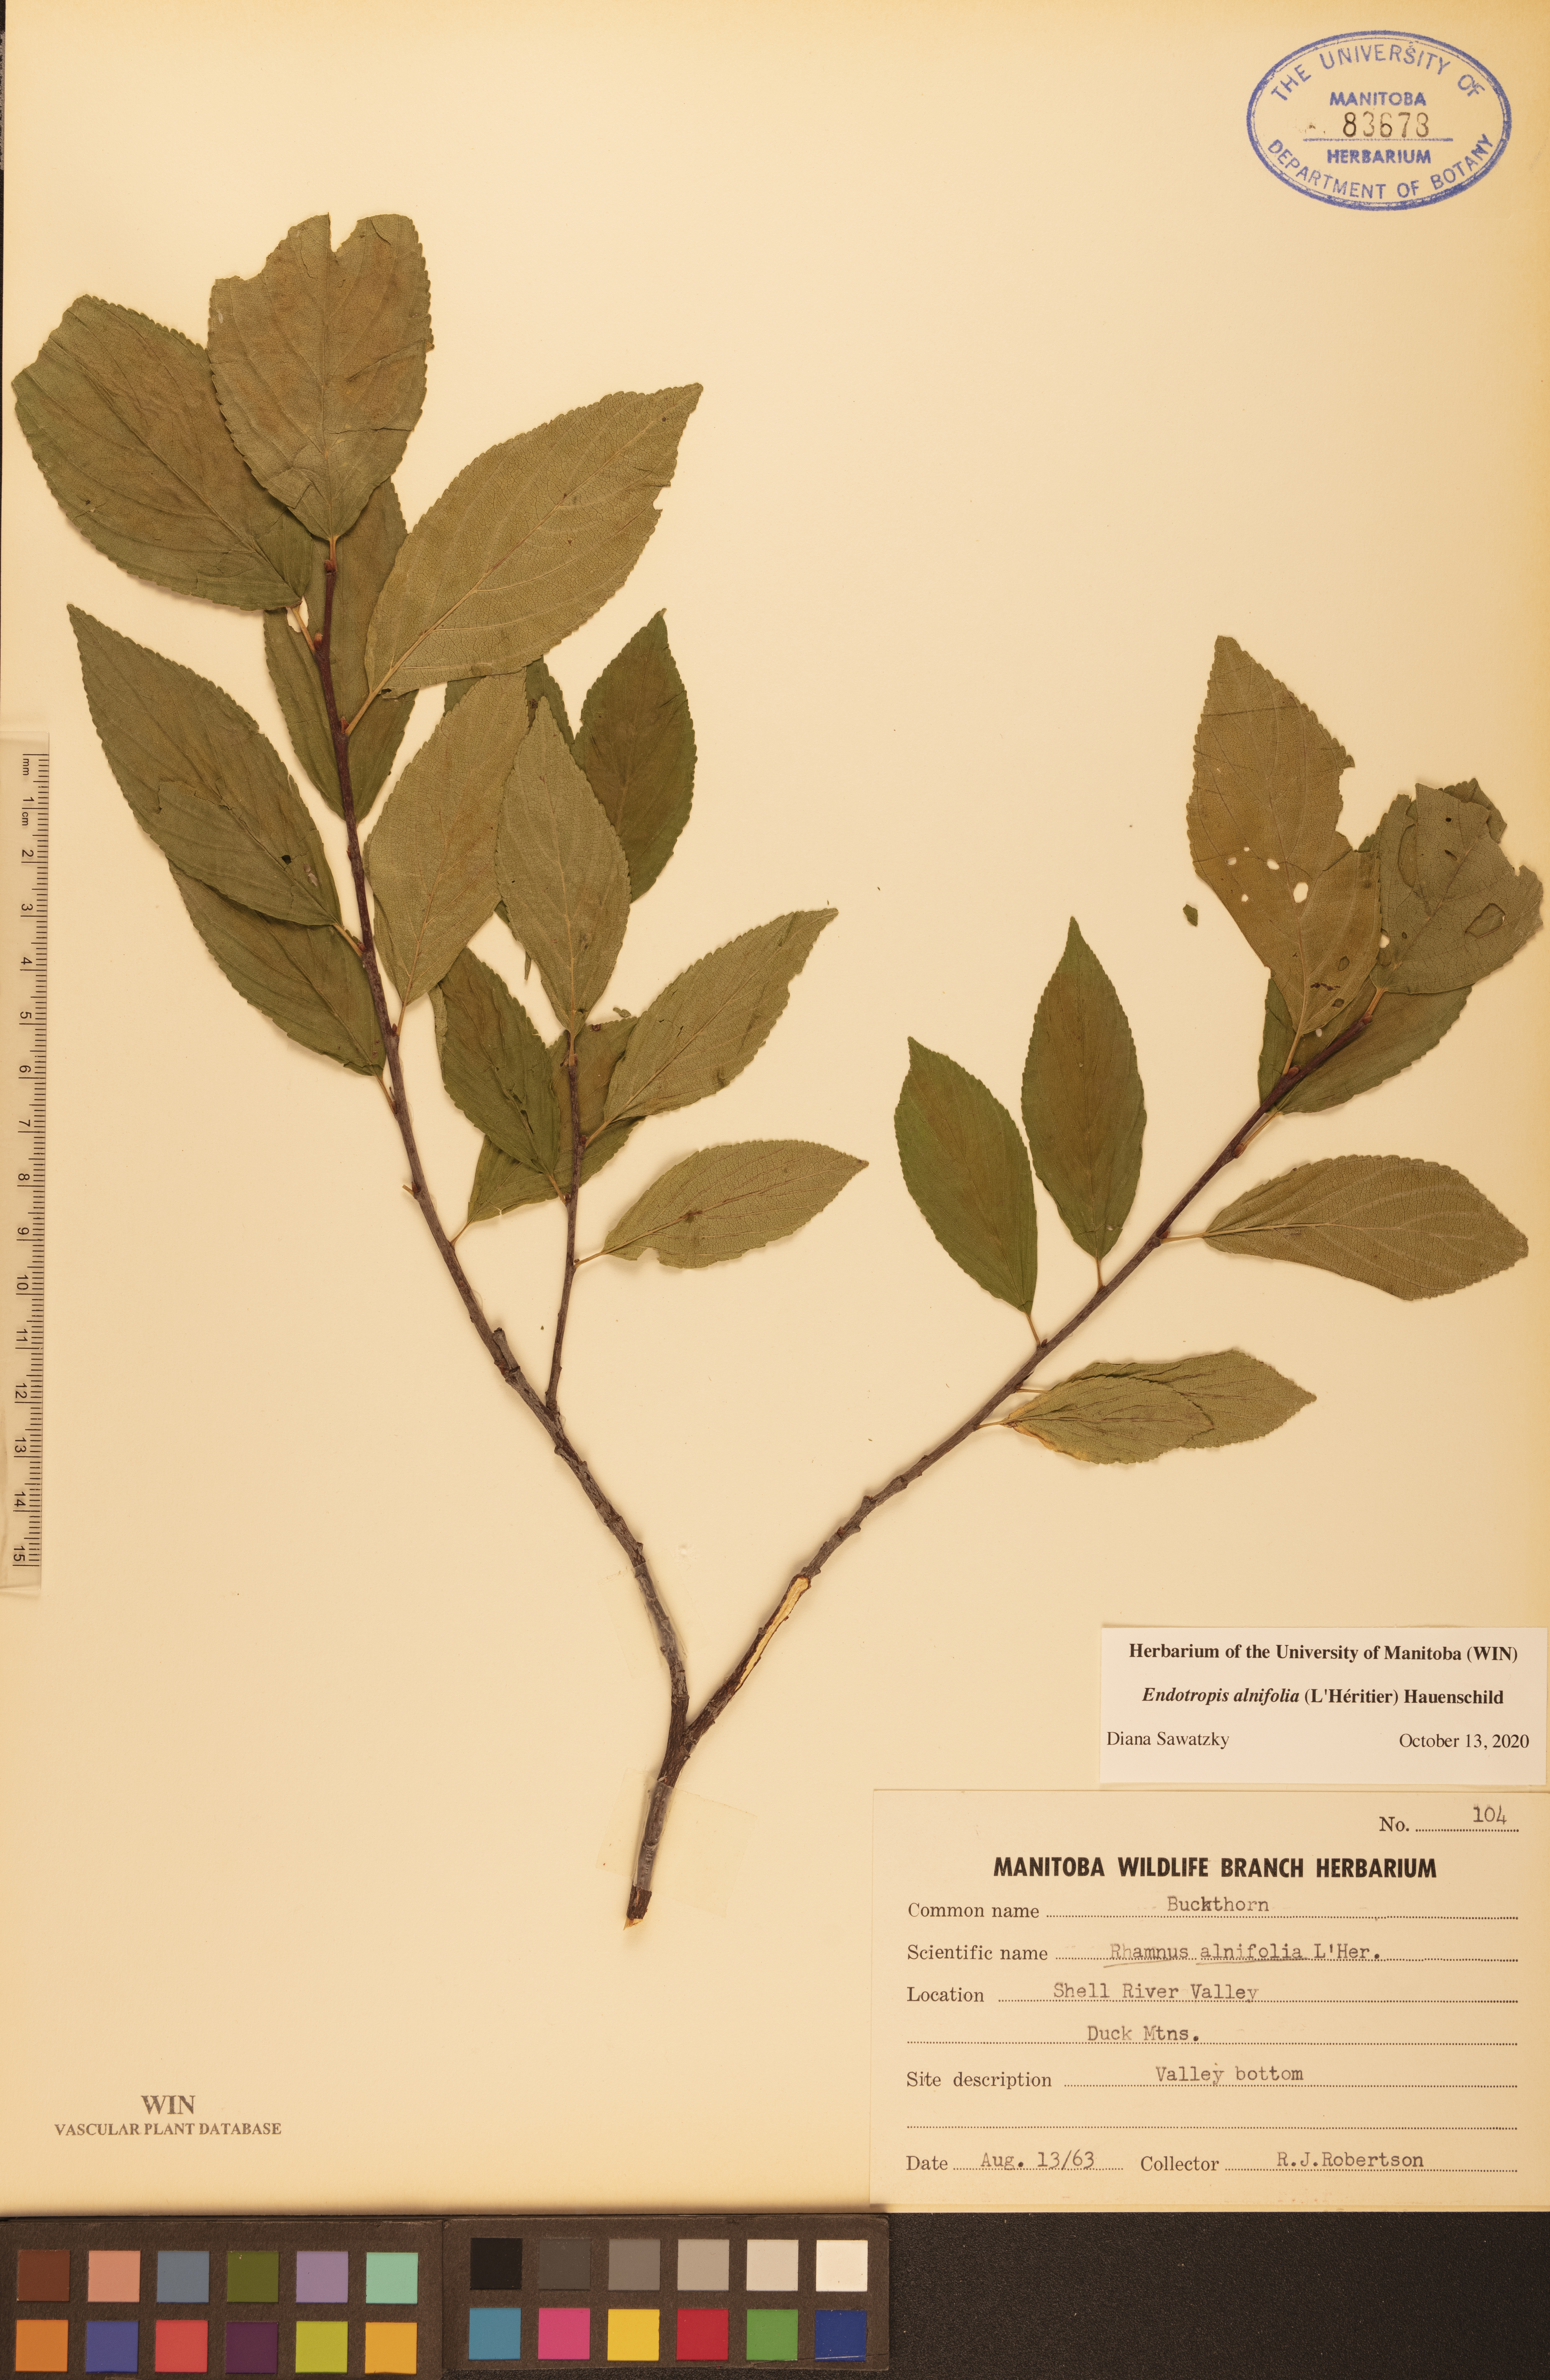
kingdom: Plantae
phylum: Tracheophyta
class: Magnoliopsida
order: Rosales
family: Rhamnaceae
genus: Endotropis
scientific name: Endotropis alnifolia
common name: American alder-buckthorn
